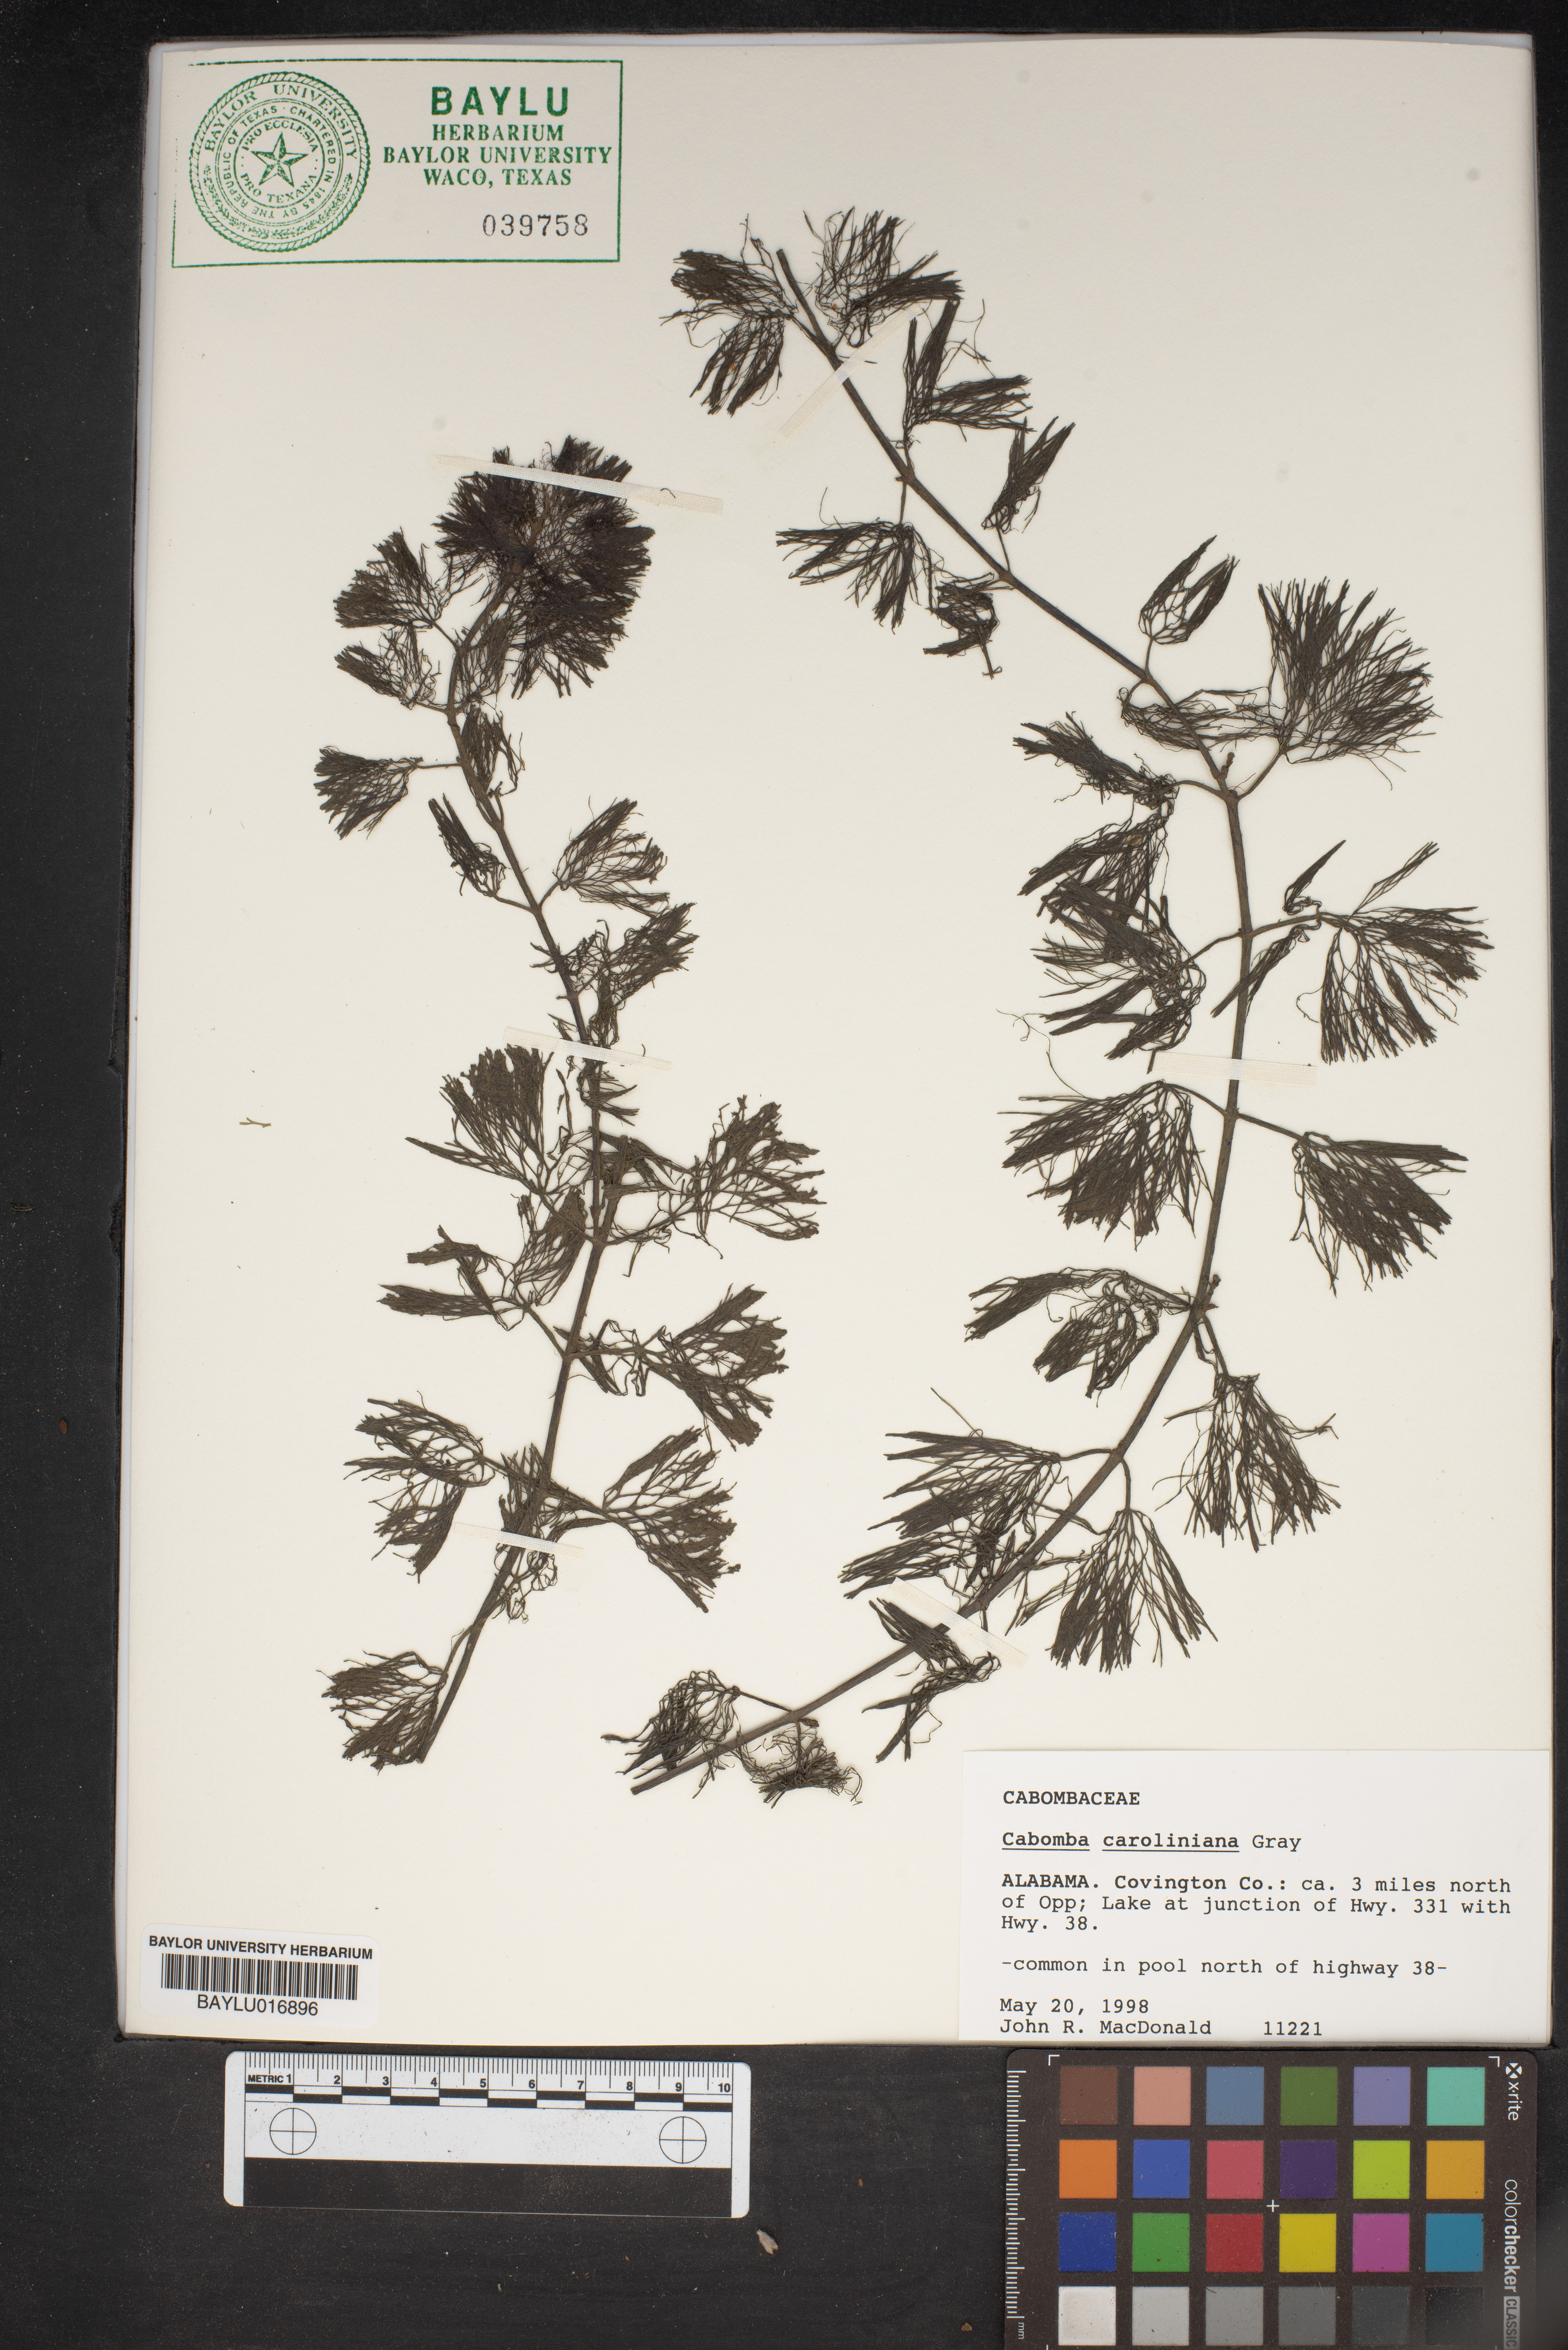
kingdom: Plantae
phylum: Tracheophyta
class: Magnoliopsida
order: Nymphaeales
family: Cabombaceae
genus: Cabomba
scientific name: Cabomba caroliniana
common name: Fanwort
